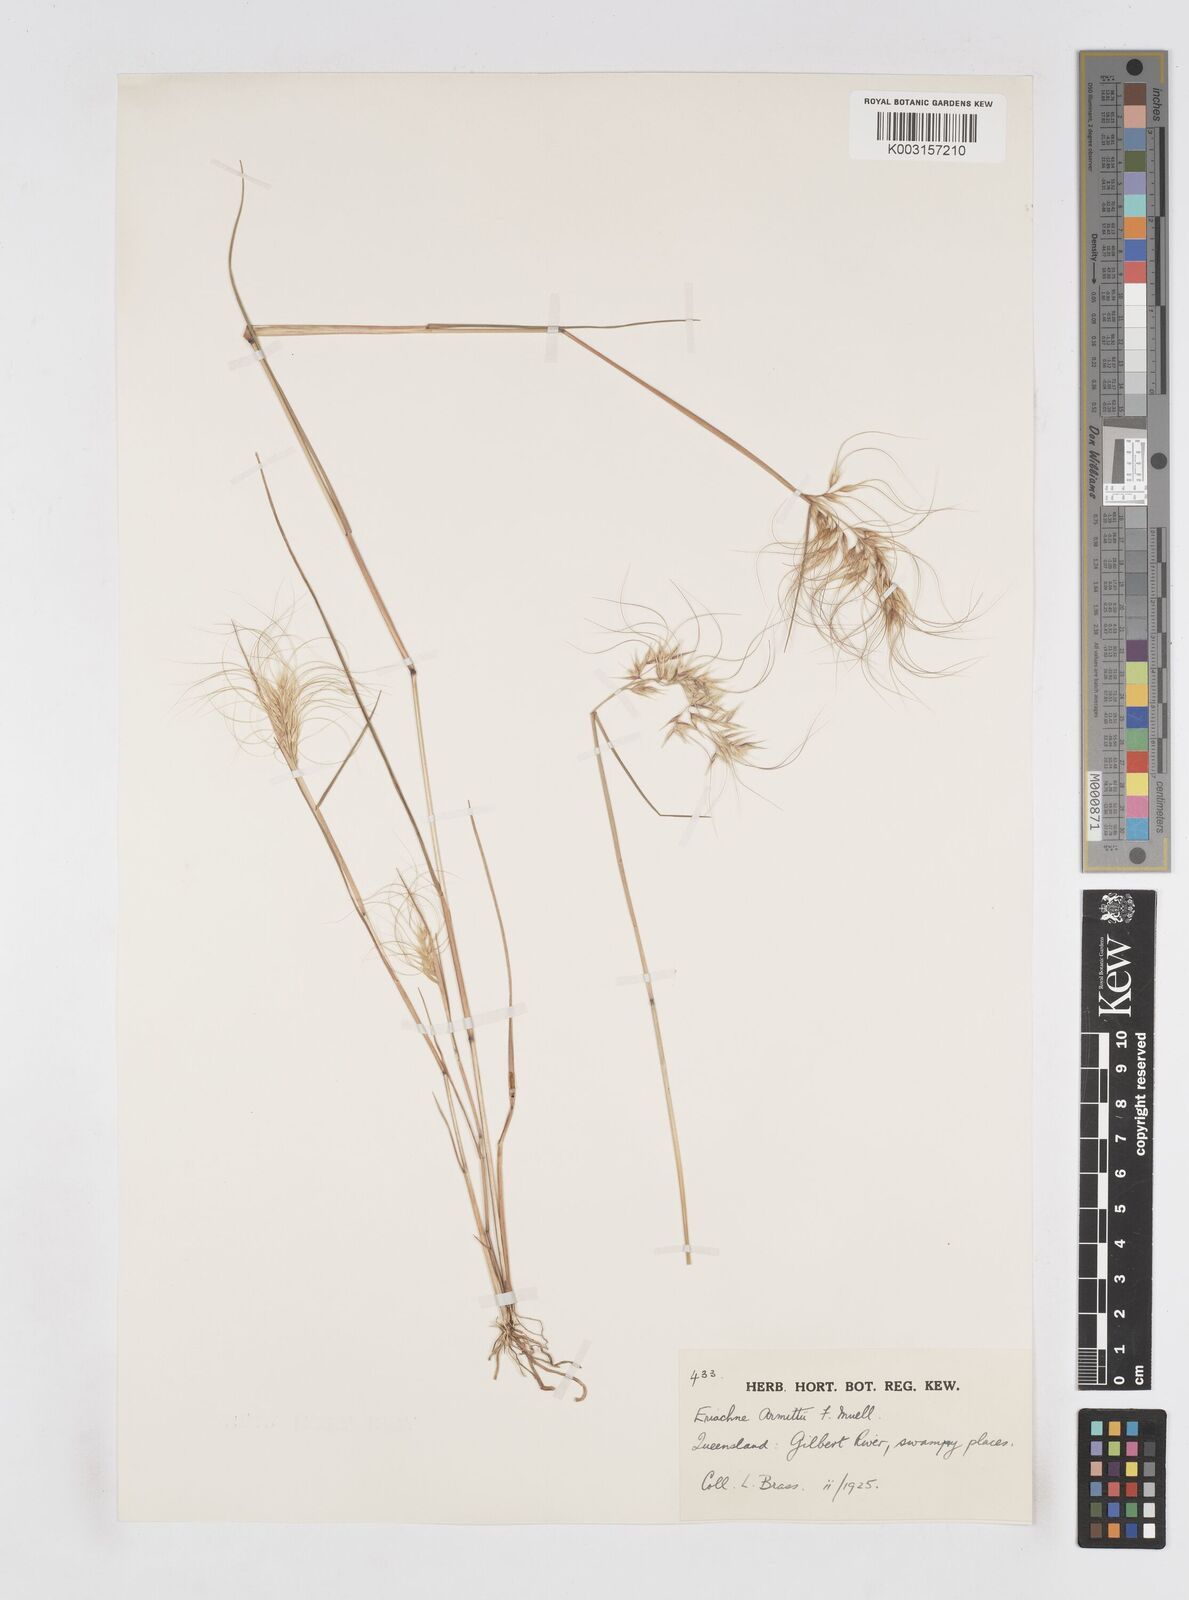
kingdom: Plantae
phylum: Tracheophyta
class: Liliopsida
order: Poales
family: Poaceae
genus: Eriachne
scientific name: Eriachne armitii
